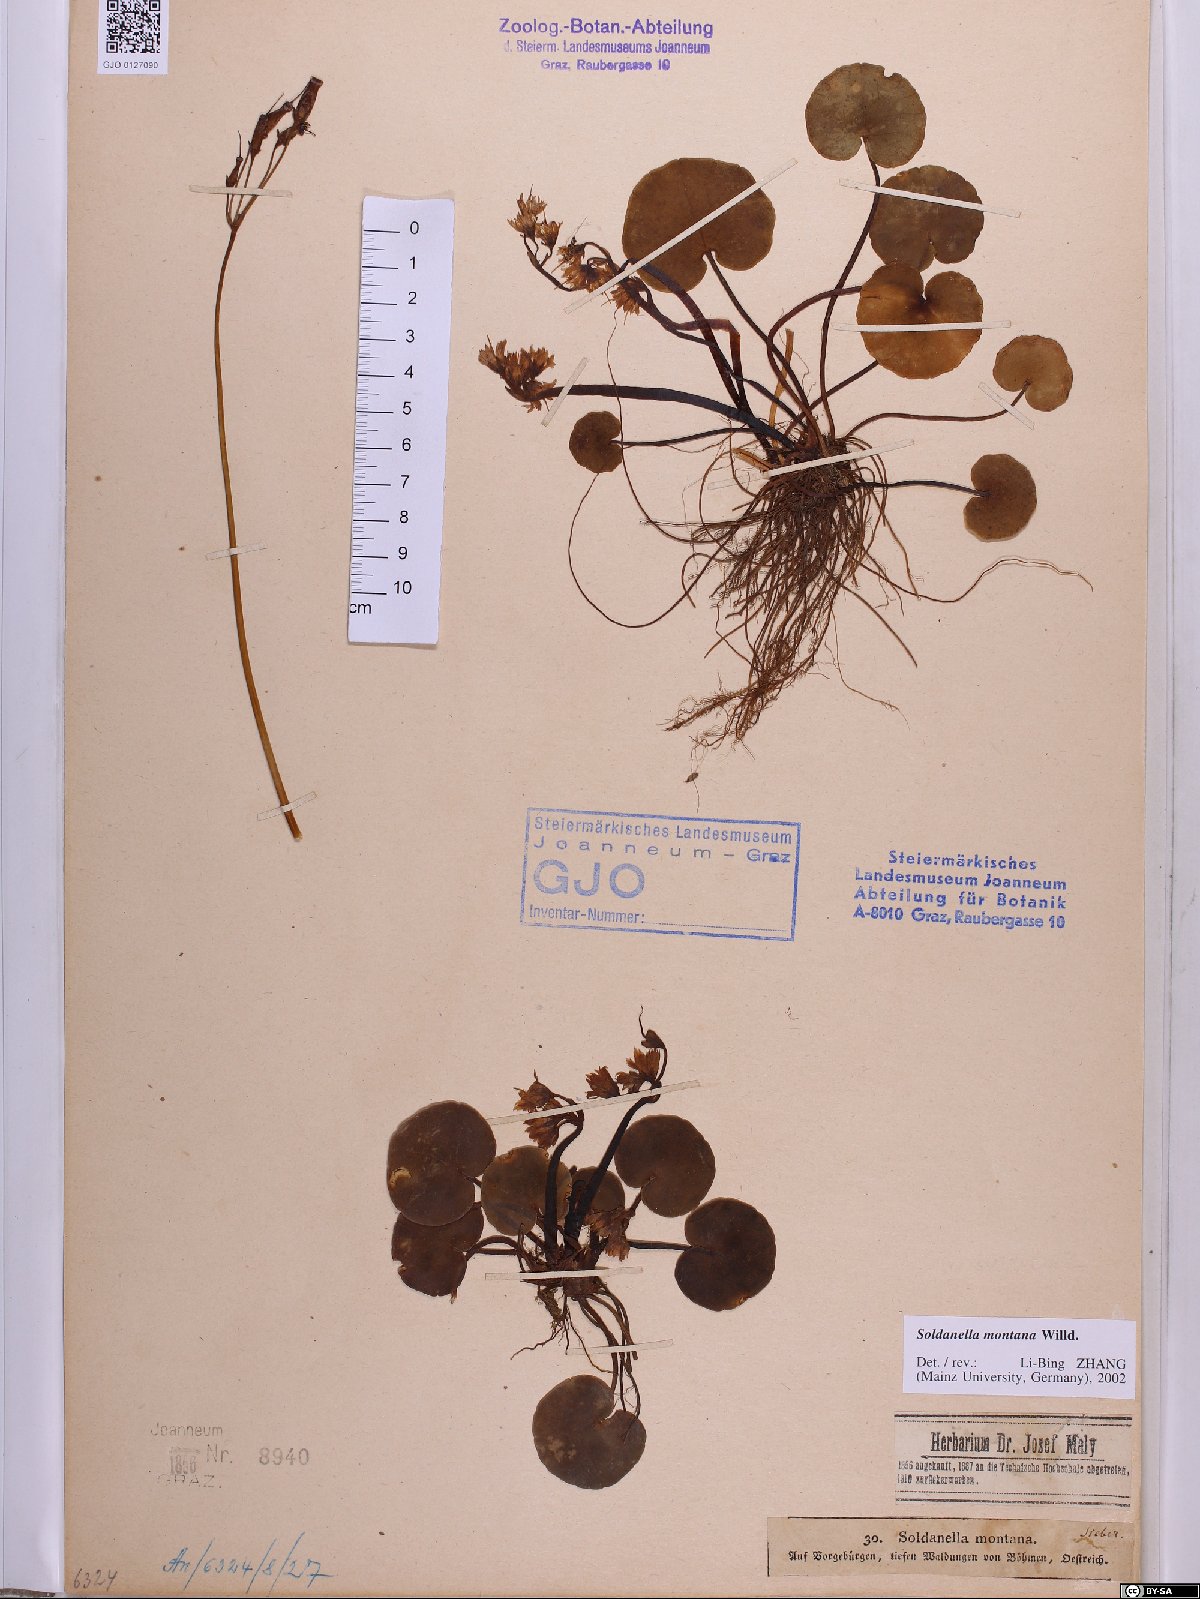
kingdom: Plantae
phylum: Tracheophyta
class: Magnoliopsida
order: Ericales
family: Primulaceae
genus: Soldanella
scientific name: Soldanella montana
